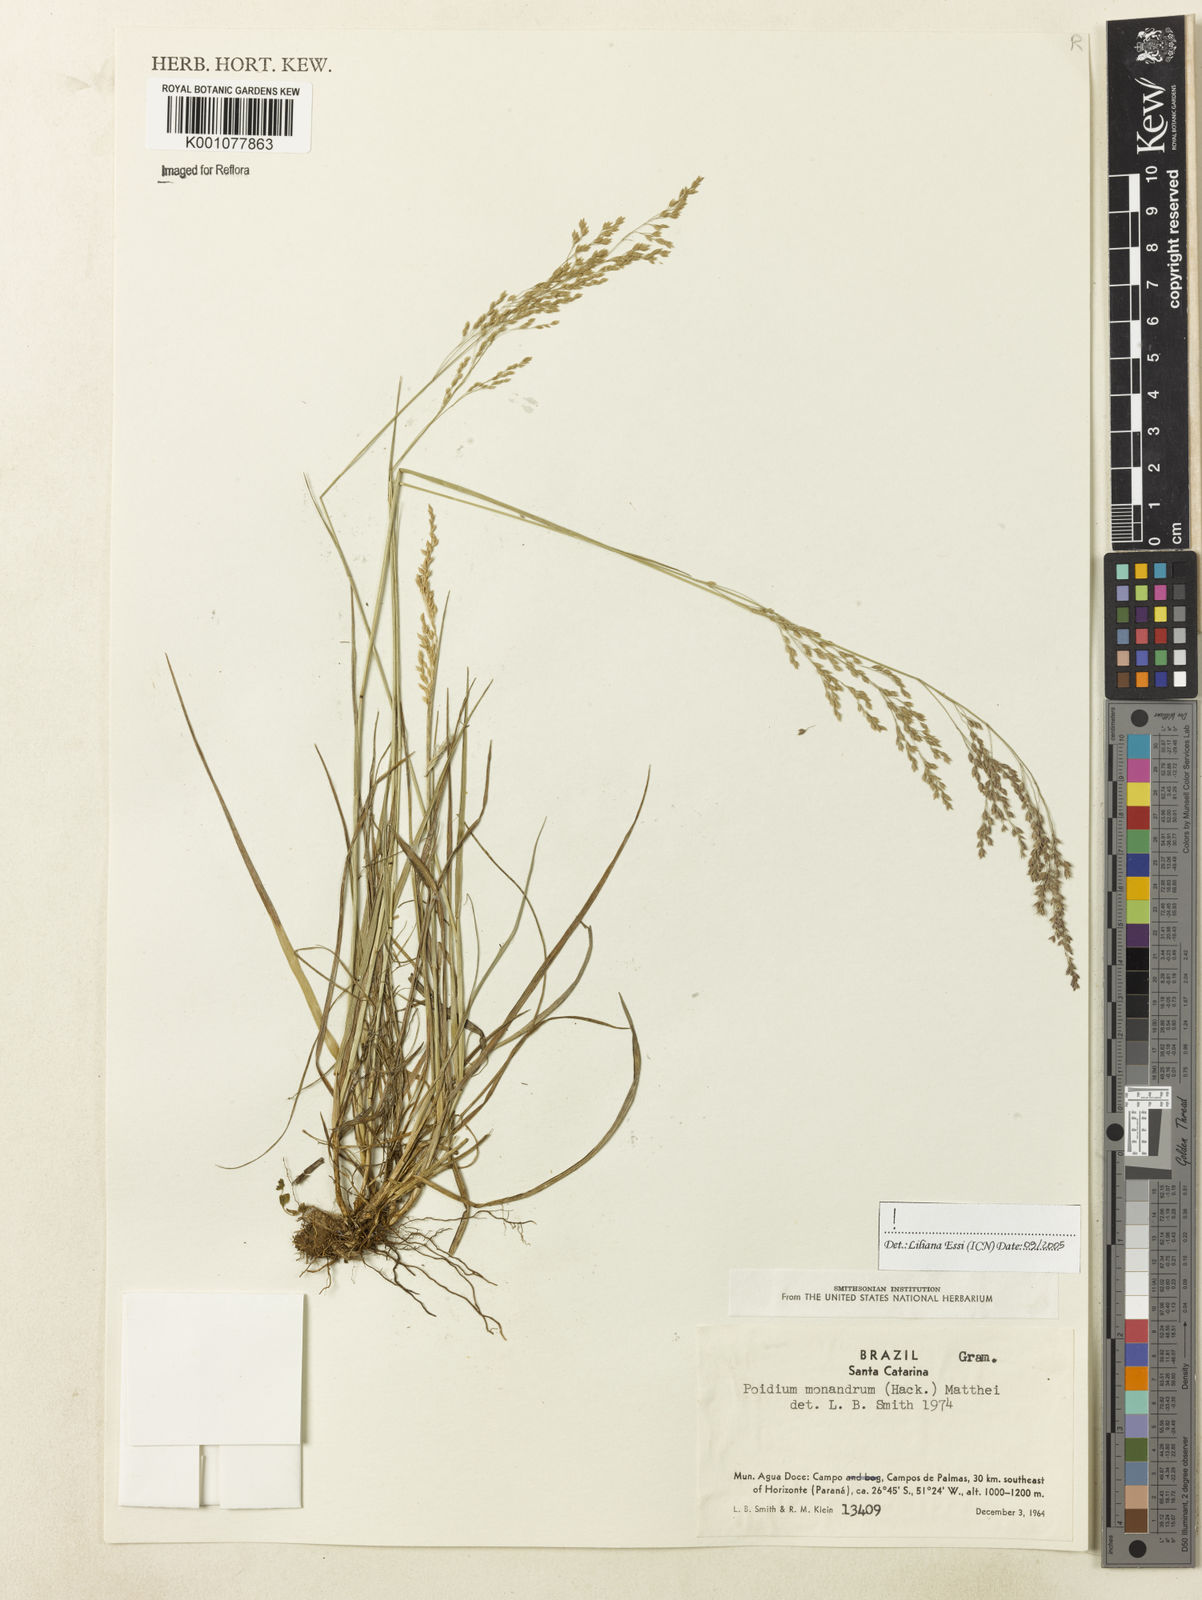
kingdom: Plantae
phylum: Tracheophyta
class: Liliopsida
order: Poales
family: Poaceae
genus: Poidium
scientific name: Poidium monandrum
